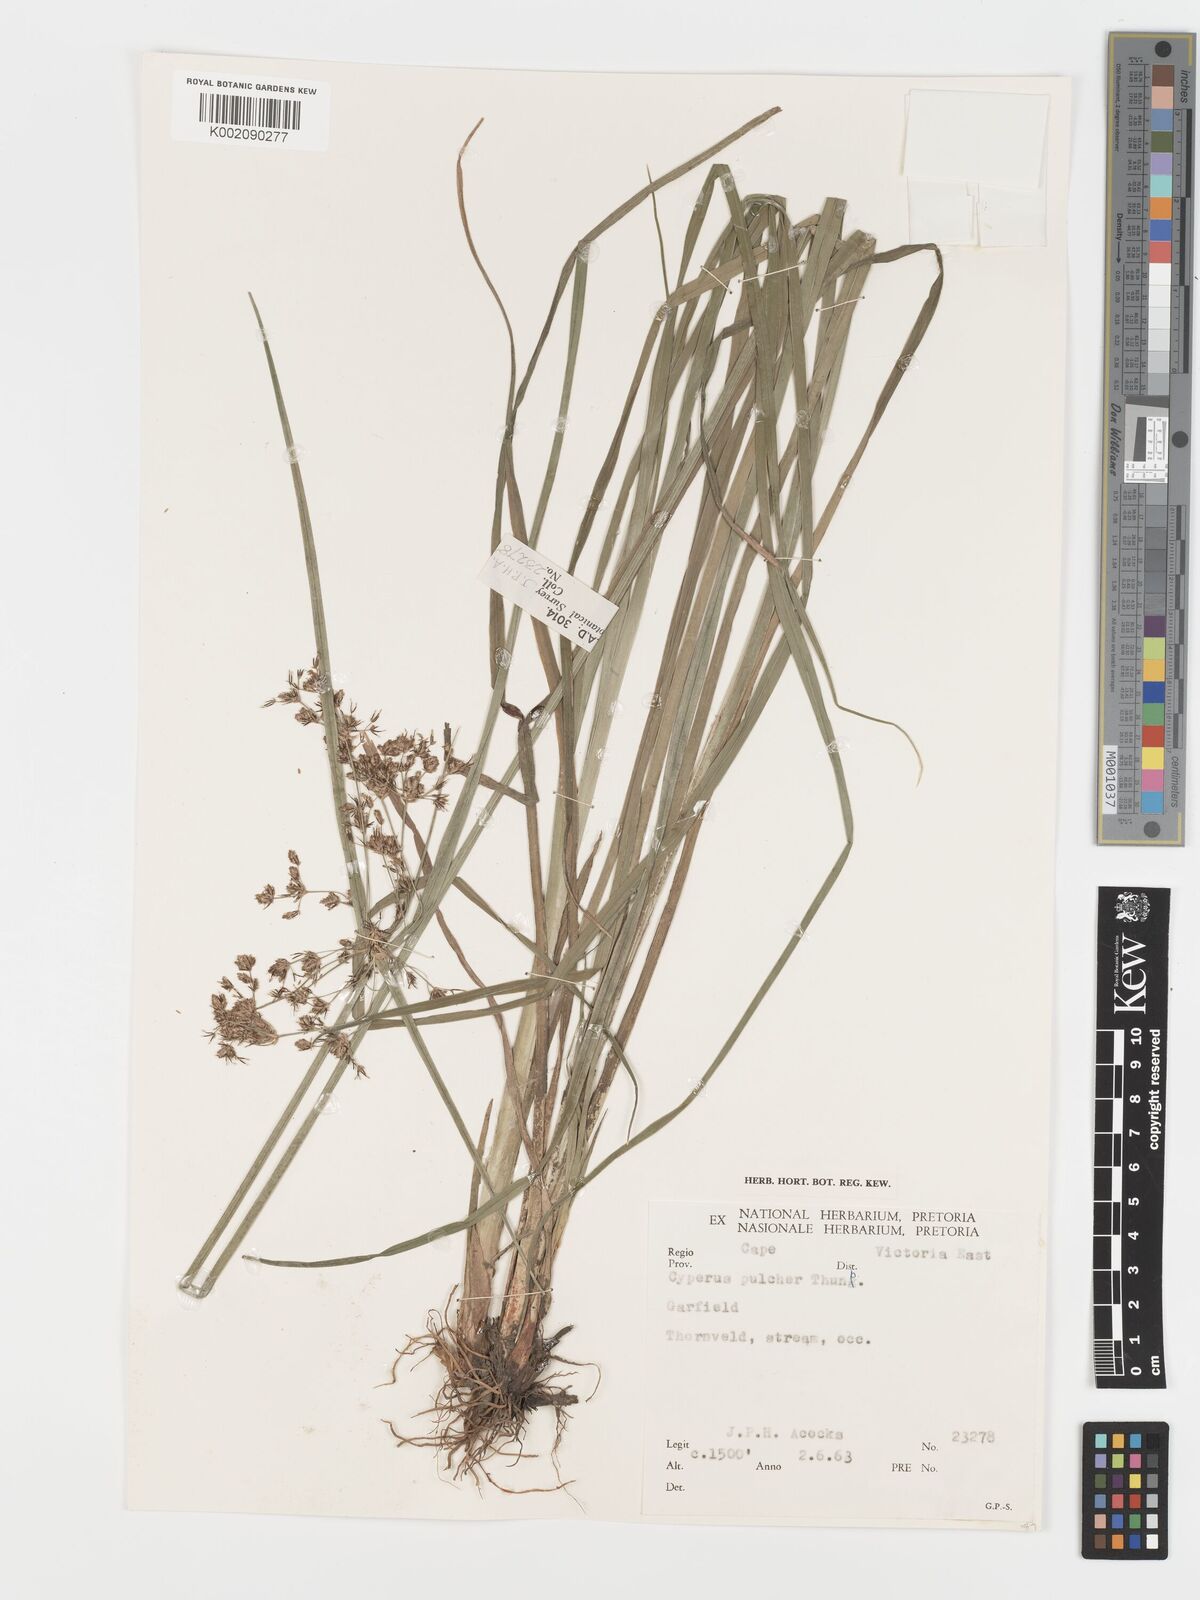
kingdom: Plantae
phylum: Tracheophyta
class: Liliopsida
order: Poales
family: Cyperaceae
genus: Cyperus
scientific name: Cyperus pulcher
